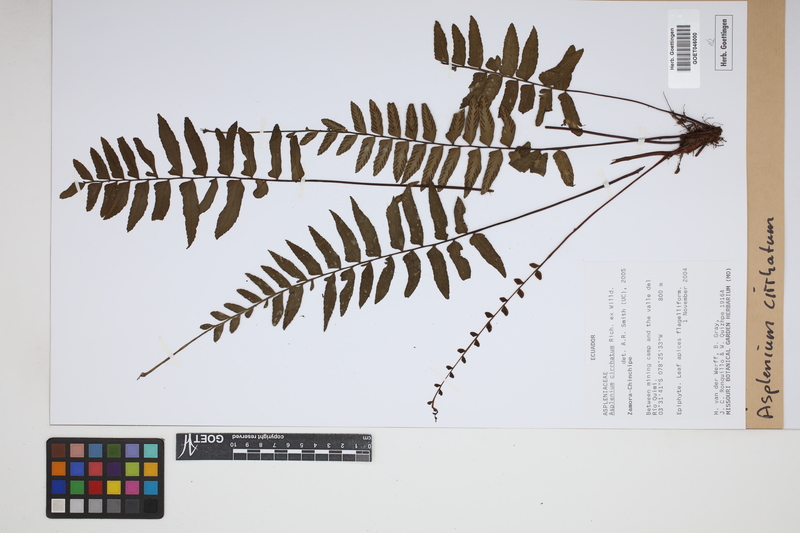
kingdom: Plantae
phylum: Tracheophyta
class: Polypodiopsida
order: Polypodiales
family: Aspleniaceae
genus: Asplenium
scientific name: Asplenium cirrhatum
